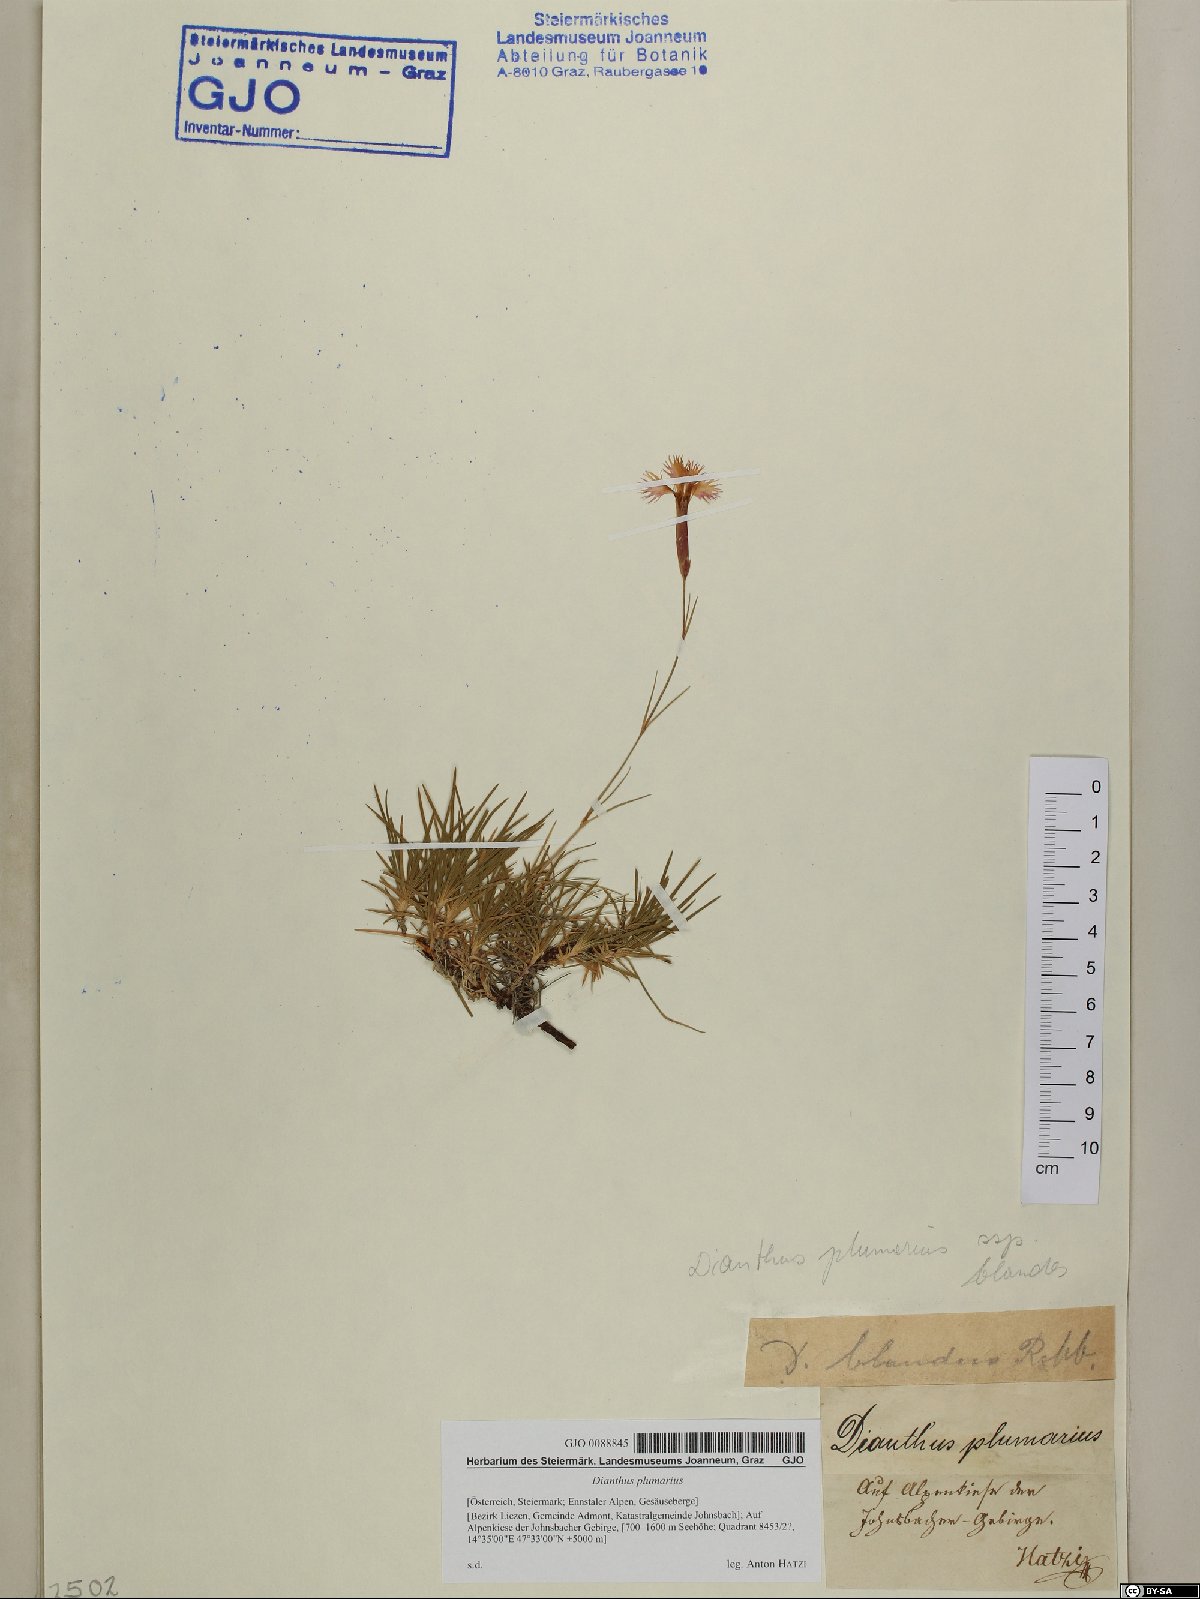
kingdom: Plantae
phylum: Tracheophyta
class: Magnoliopsida
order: Caryophyllales
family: Caryophyllaceae
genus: Dianthus
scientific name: Dianthus plumarius
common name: Pink
